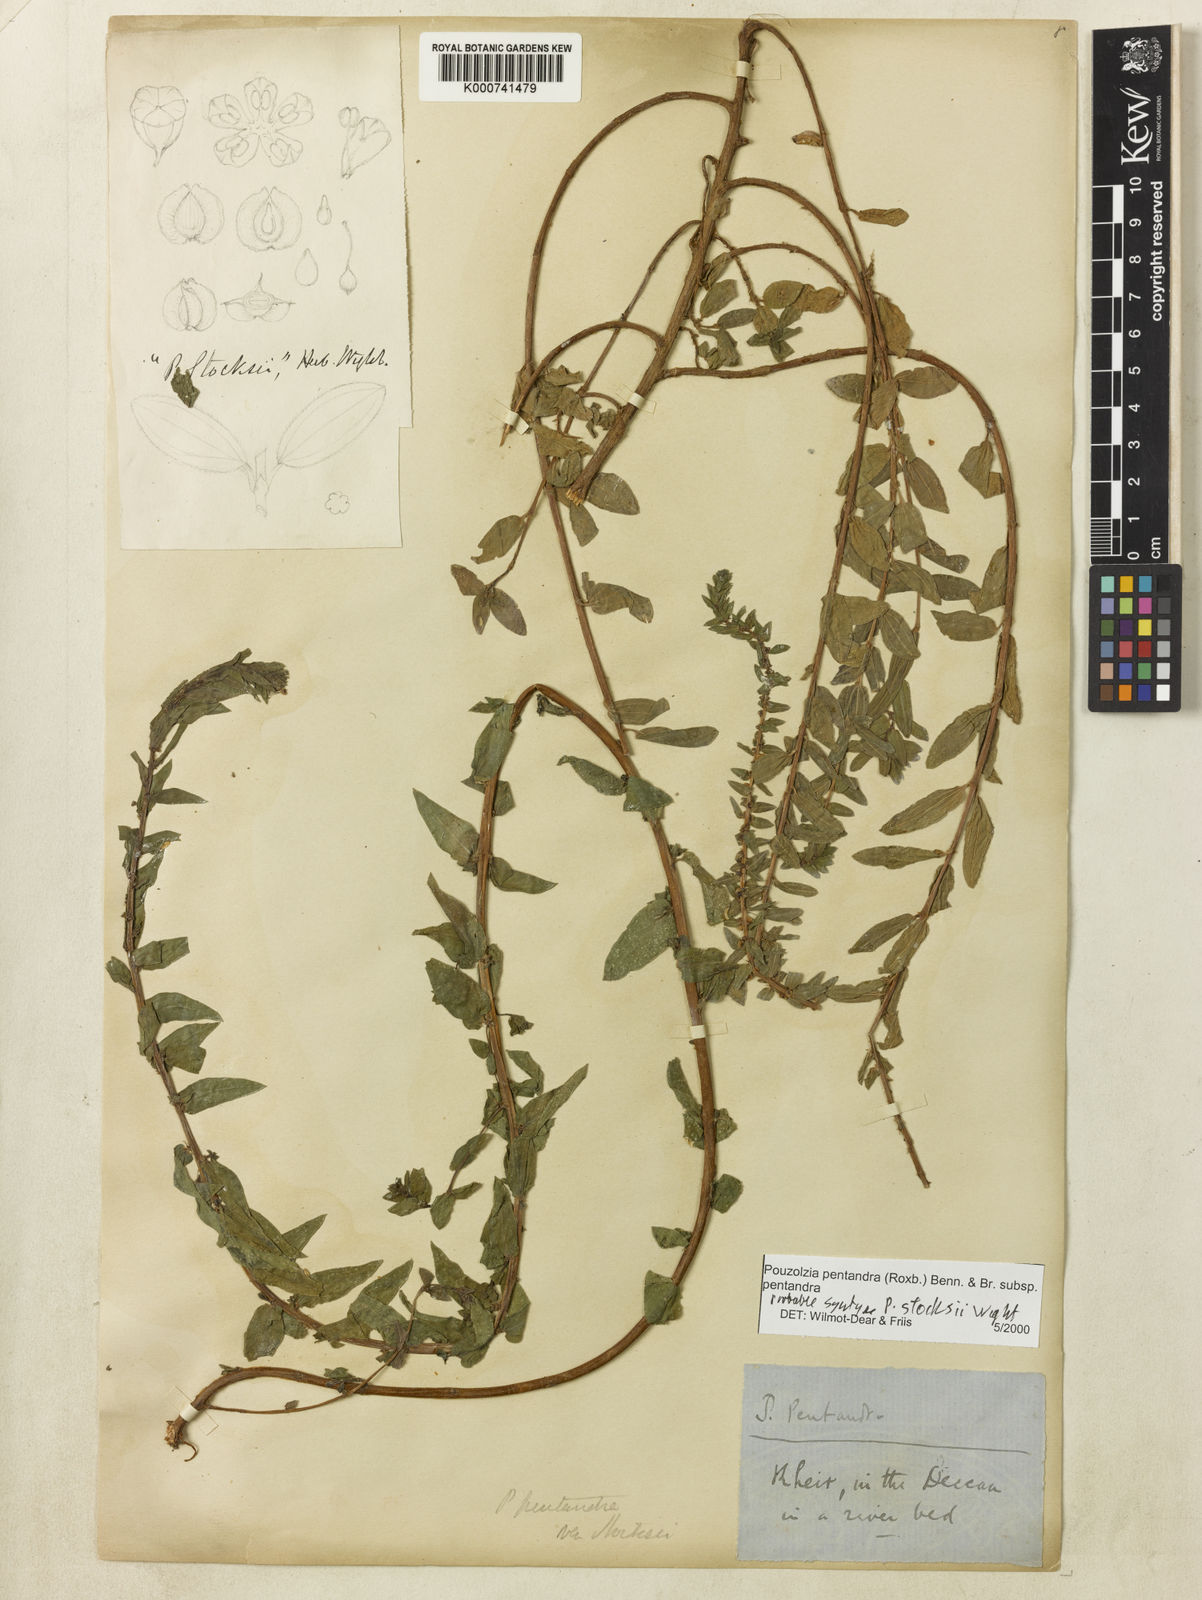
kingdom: Plantae
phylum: Tracheophyta
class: Magnoliopsida
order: Rosales
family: Urticaceae
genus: Gonostegia
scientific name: Gonostegia pentandra
